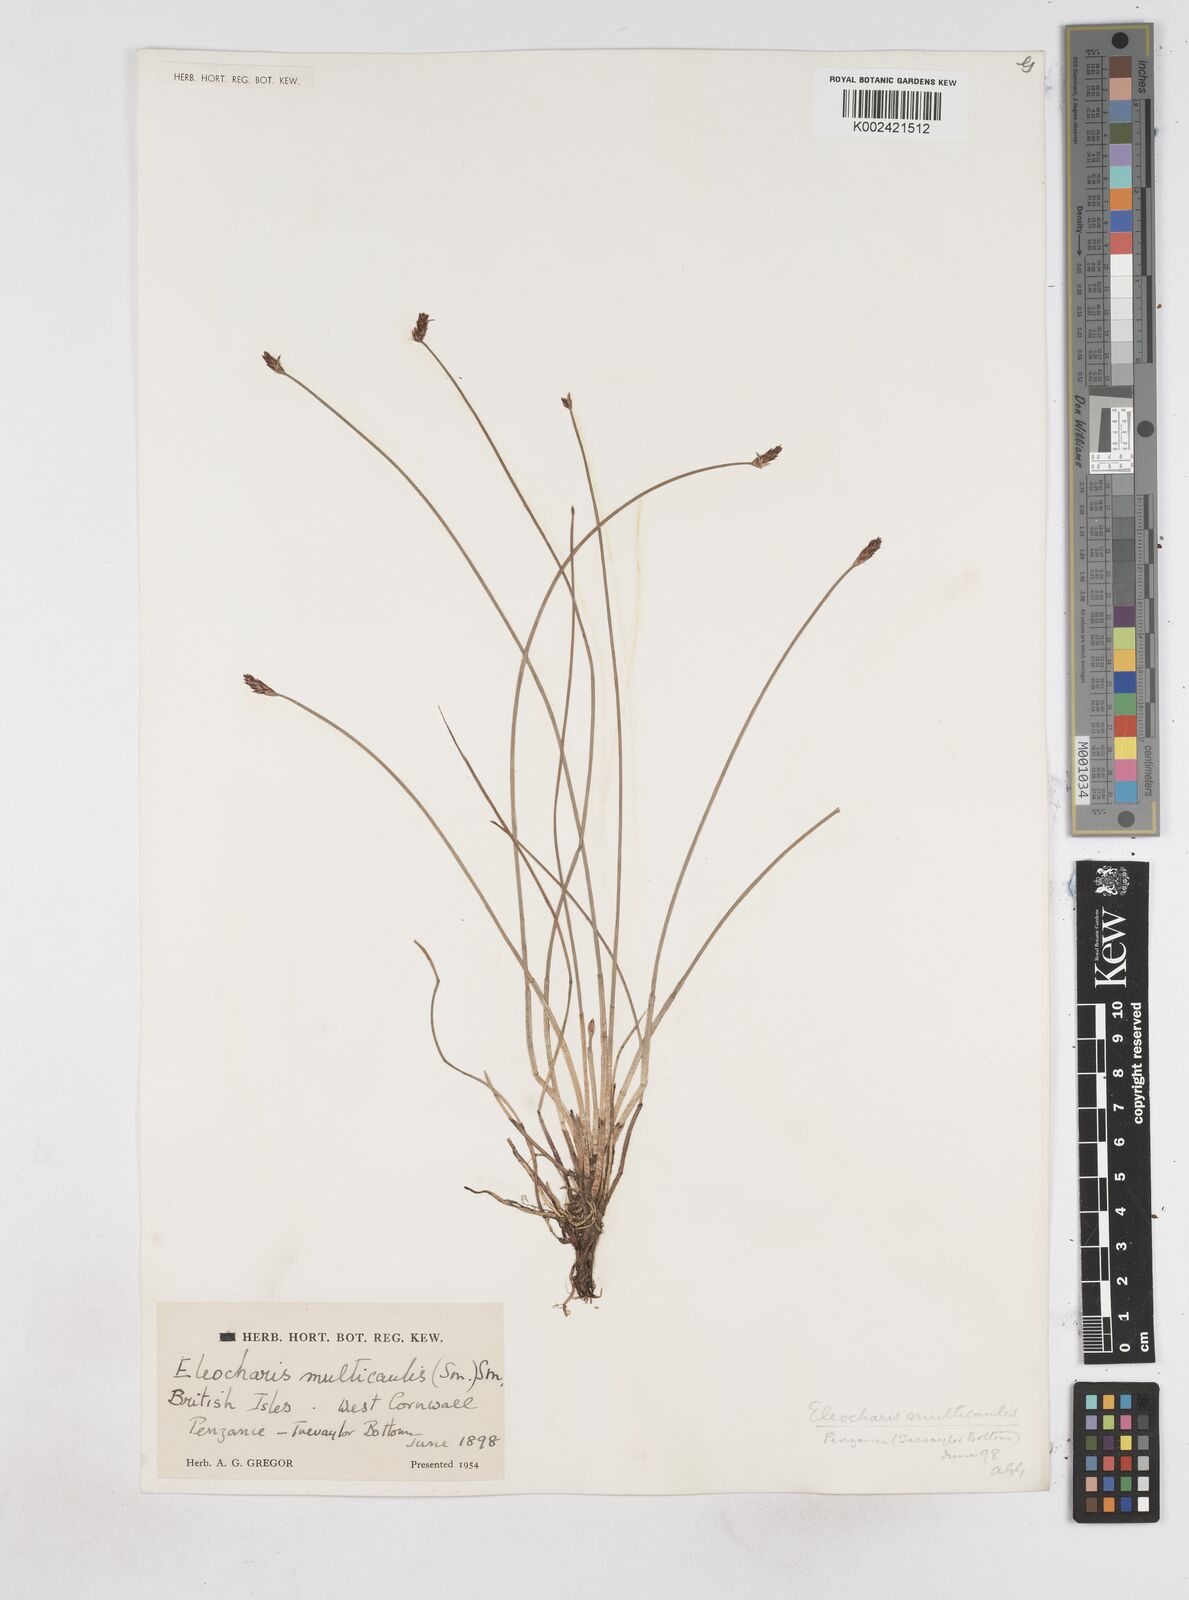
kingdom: Plantae
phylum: Tracheophyta
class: Liliopsida
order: Poales
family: Cyperaceae
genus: Eleocharis
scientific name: Eleocharis multicaulis
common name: Many-stalked spike-rush
